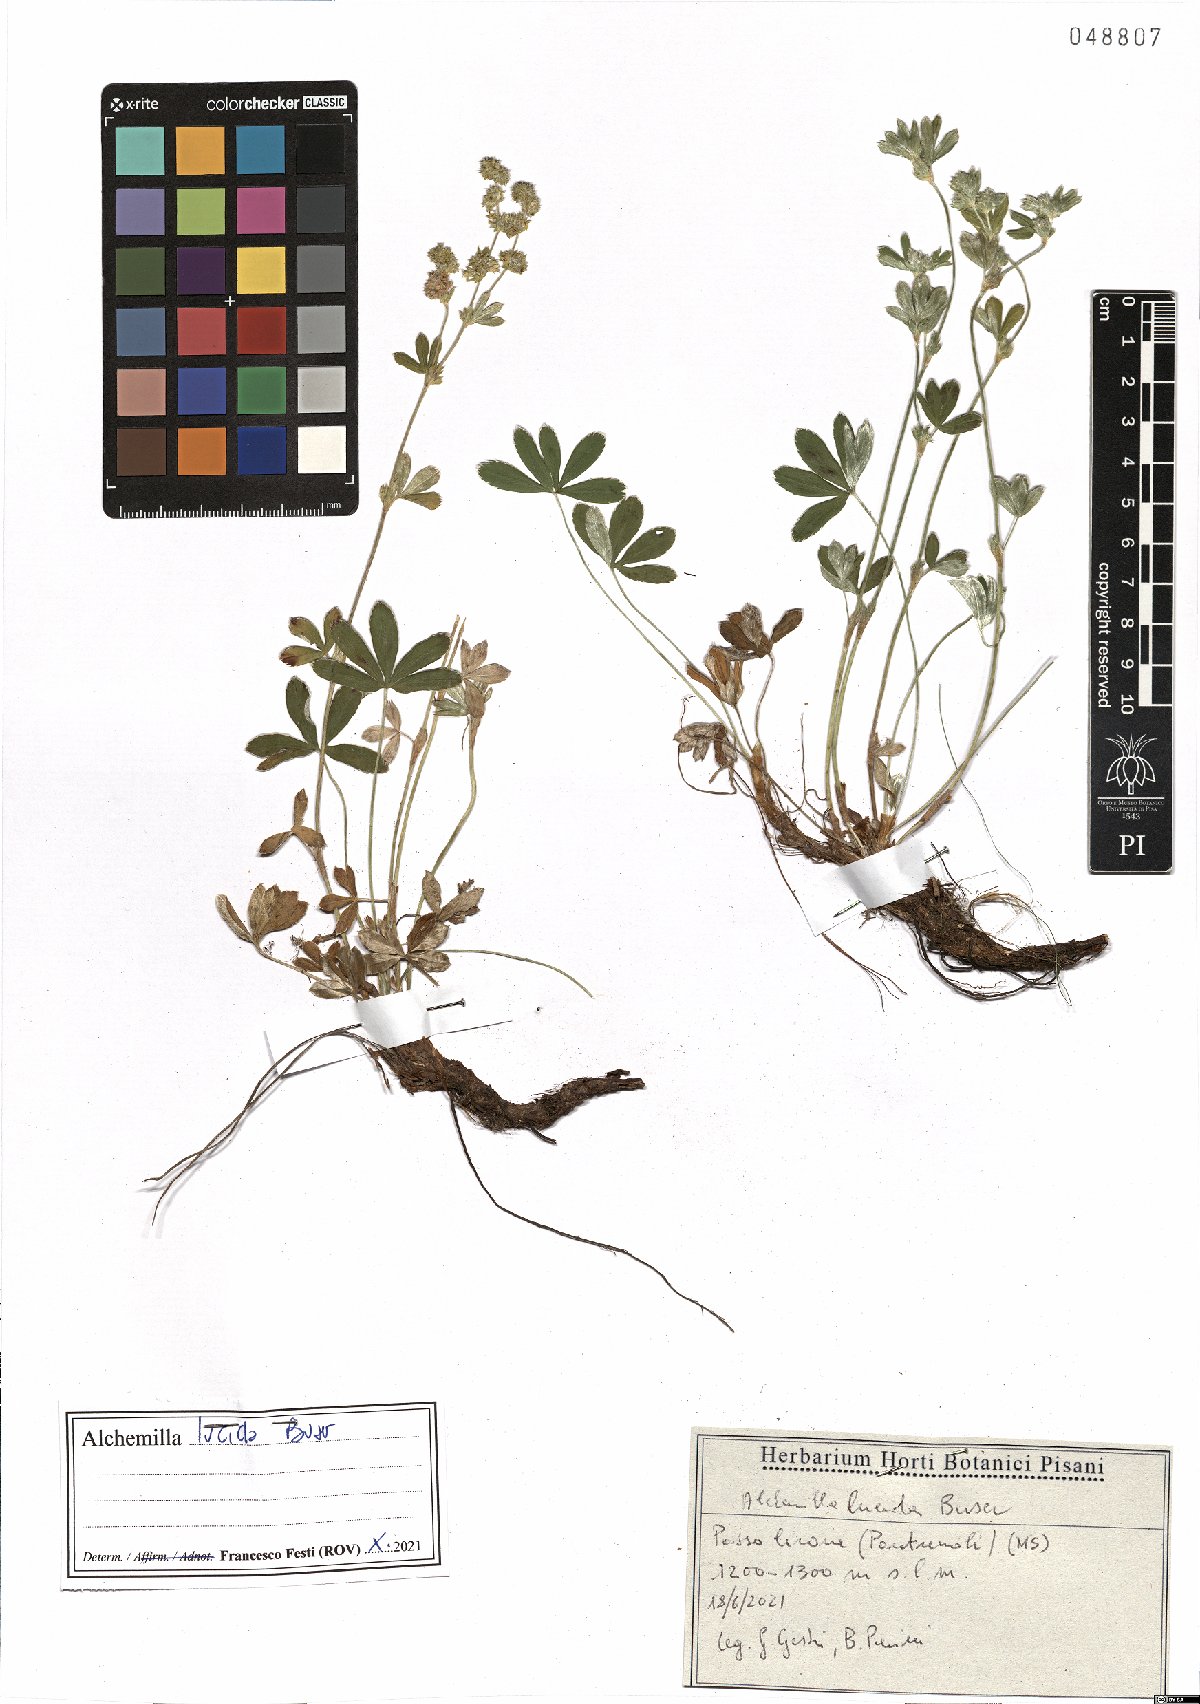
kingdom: Plantae
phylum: Tracheophyta
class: Magnoliopsida
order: Rosales
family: Rosaceae
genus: Alchemilla
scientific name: Alchemilla lucida
